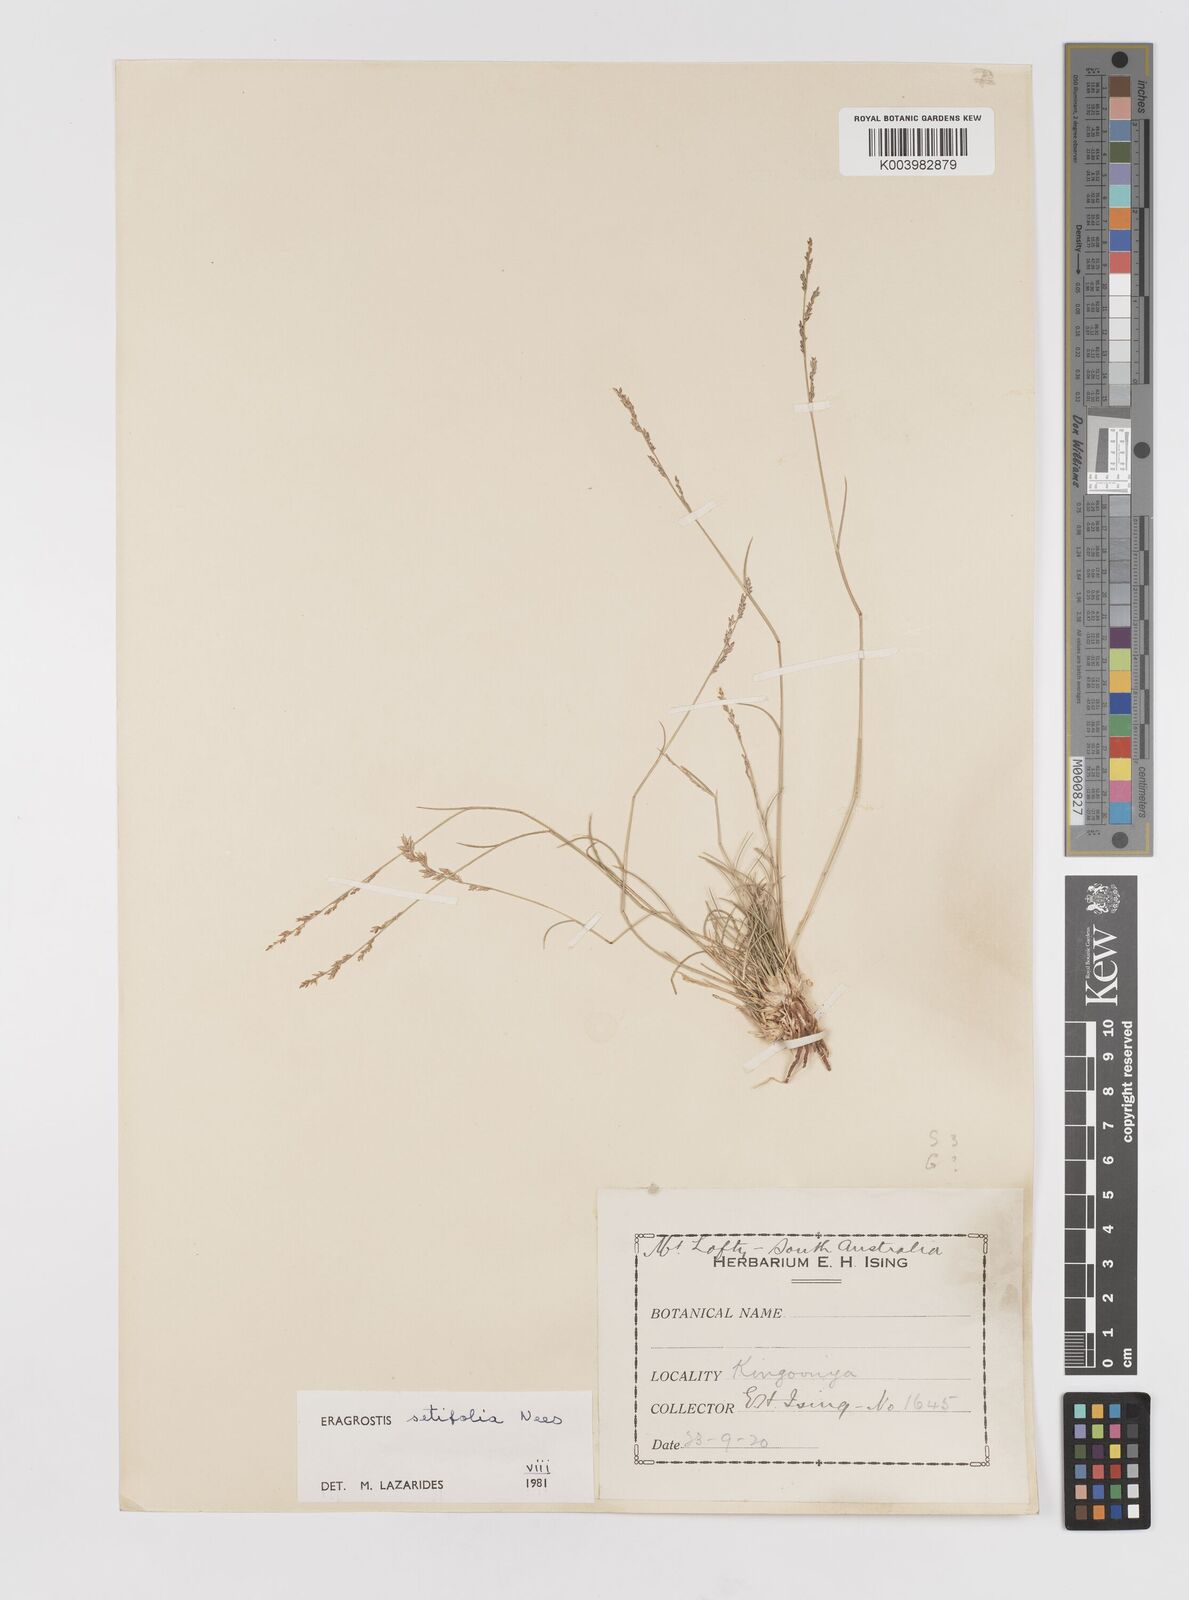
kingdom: Plantae
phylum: Tracheophyta
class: Liliopsida
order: Poales
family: Poaceae
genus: Eragrostis
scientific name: Eragrostis setifolia
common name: Bristleleaf lovegrass
